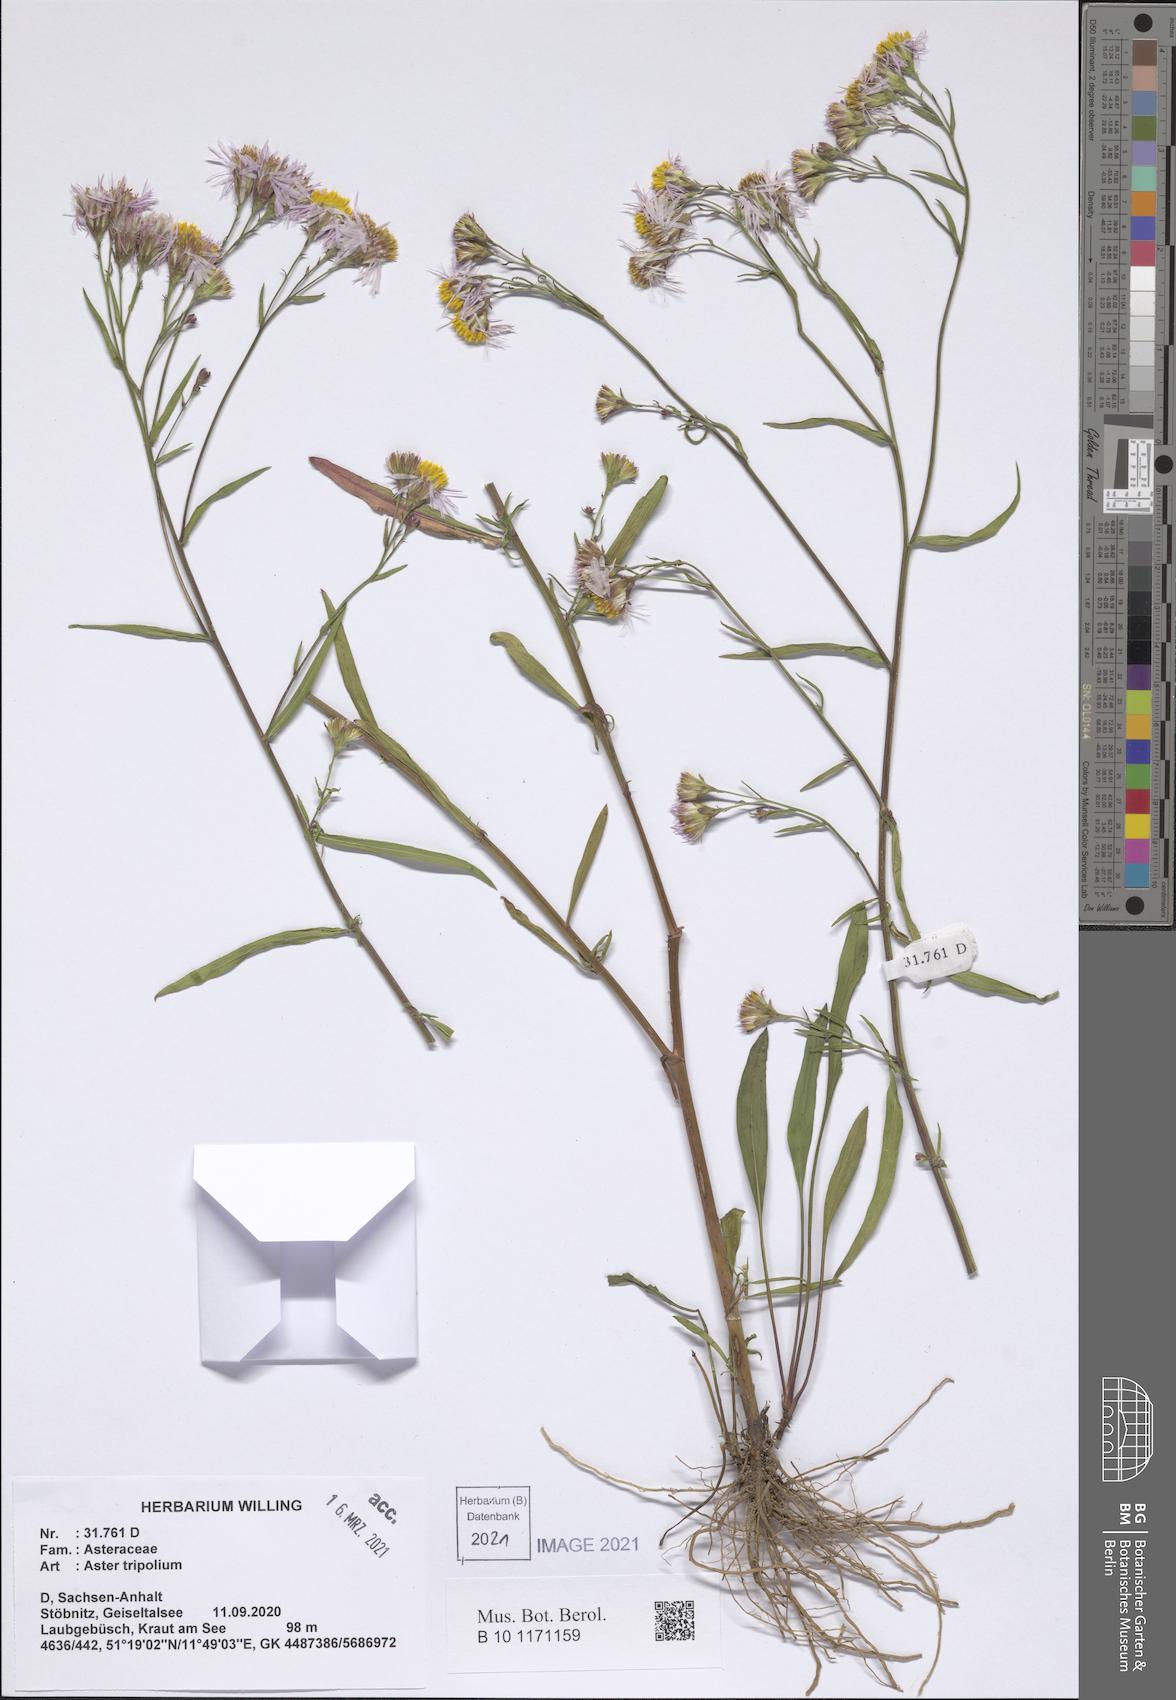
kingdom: Plantae
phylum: Tracheophyta
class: Magnoliopsida
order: Asterales
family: Asteraceae
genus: Tripolium
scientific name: Tripolium pannonicum
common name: Sea aster
